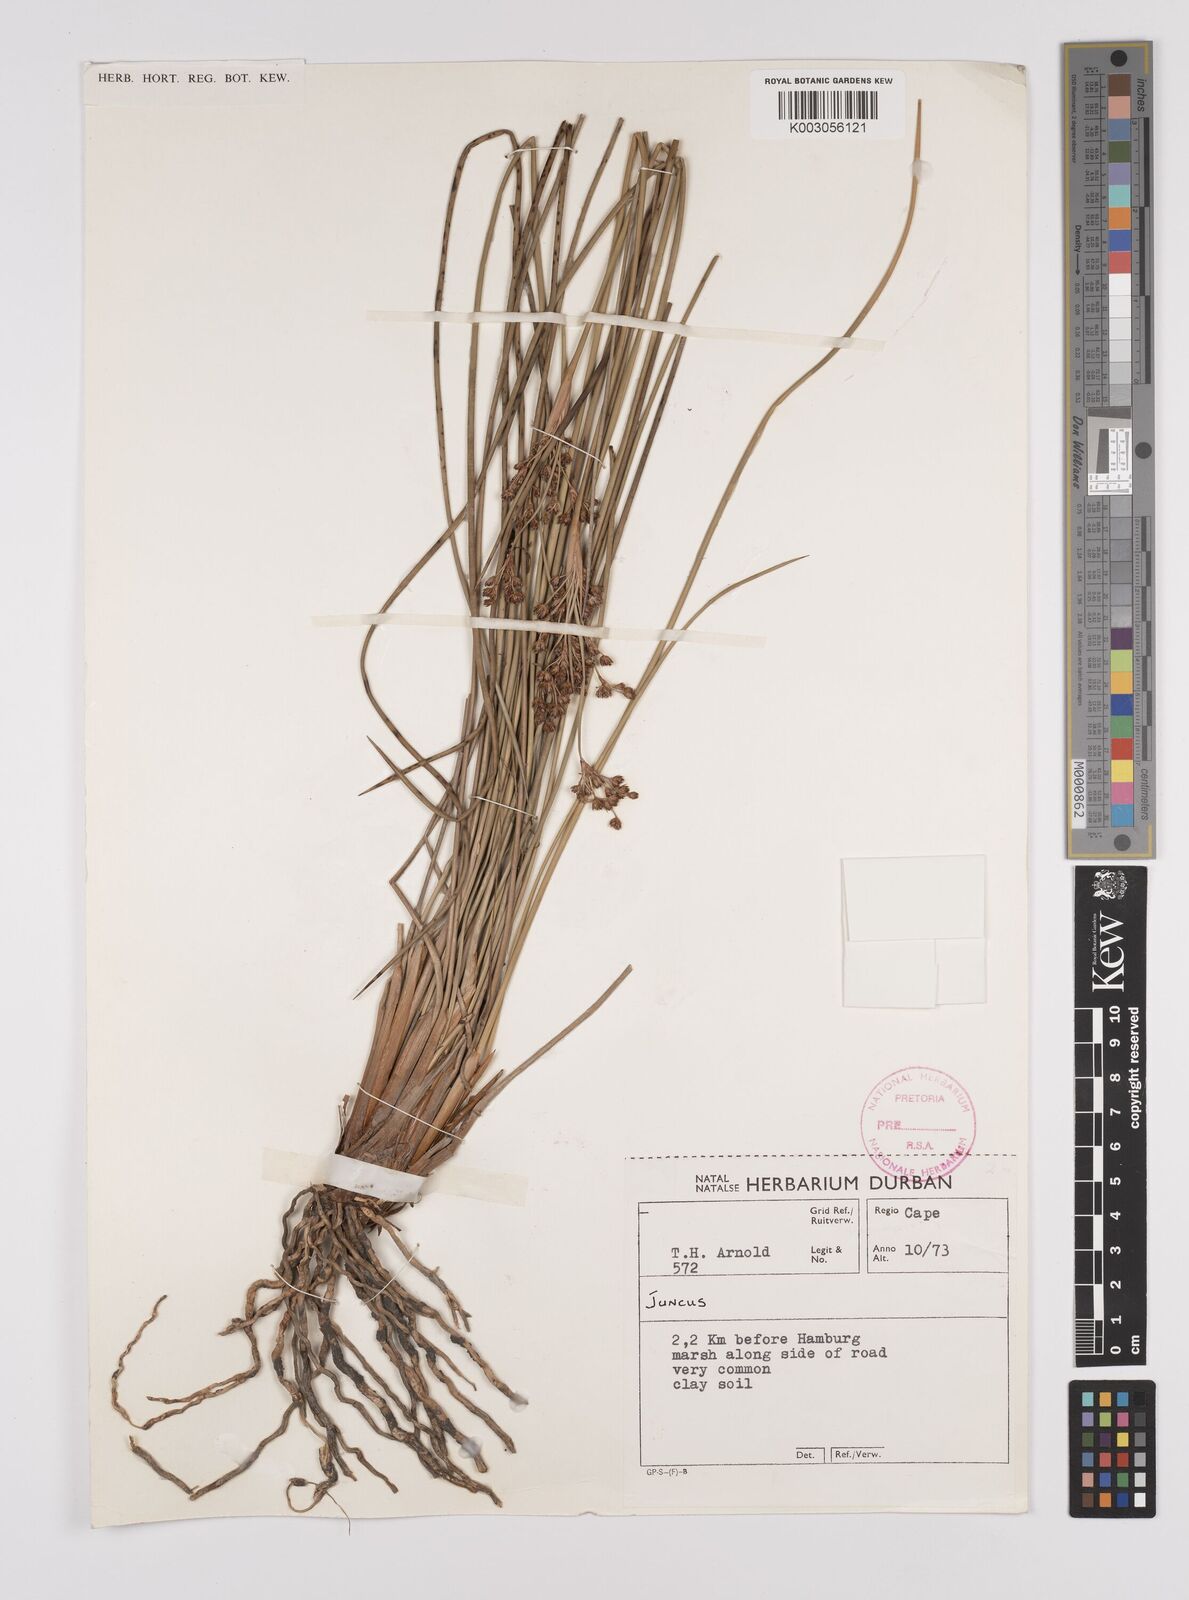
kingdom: Plantae
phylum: Tracheophyta
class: Liliopsida
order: Poales
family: Juncaceae
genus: Juncus
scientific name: Juncus
